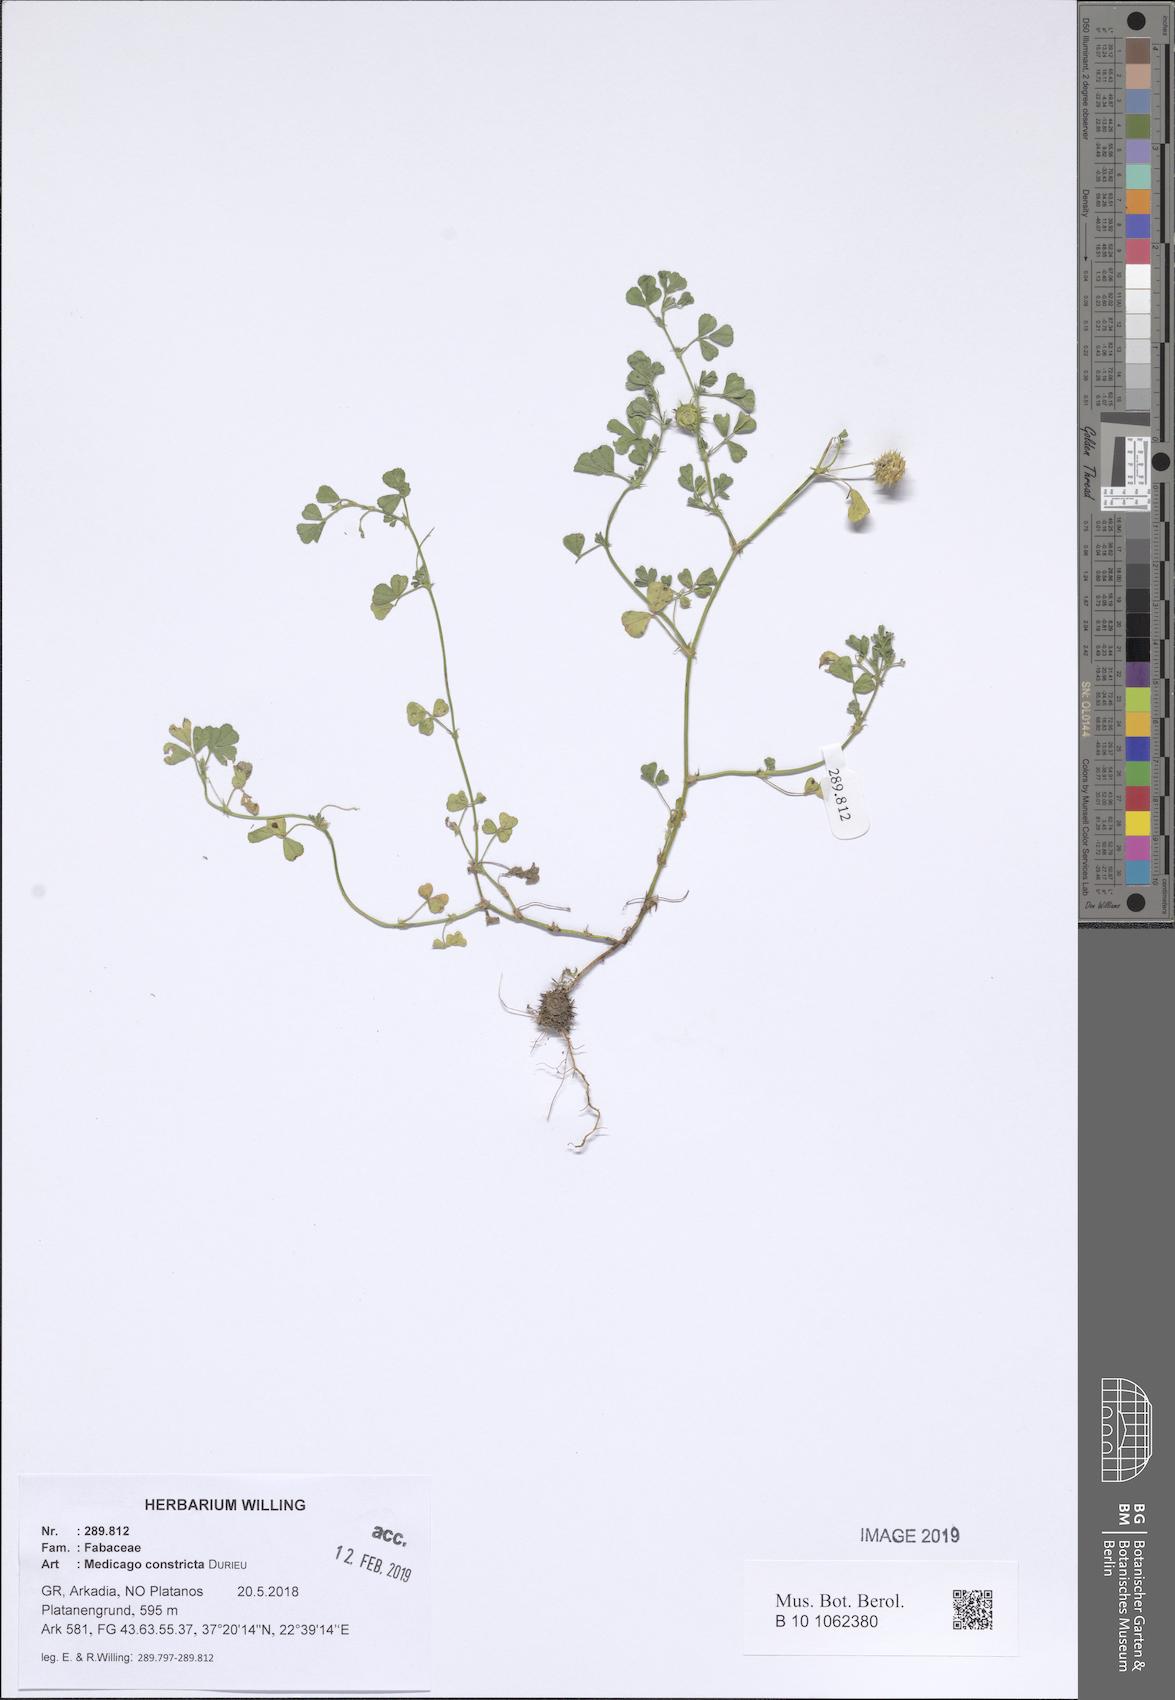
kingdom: Plantae
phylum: Tracheophyta
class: Magnoliopsida
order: Fabales
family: Fabaceae
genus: Medicago
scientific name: Medicago constricta
